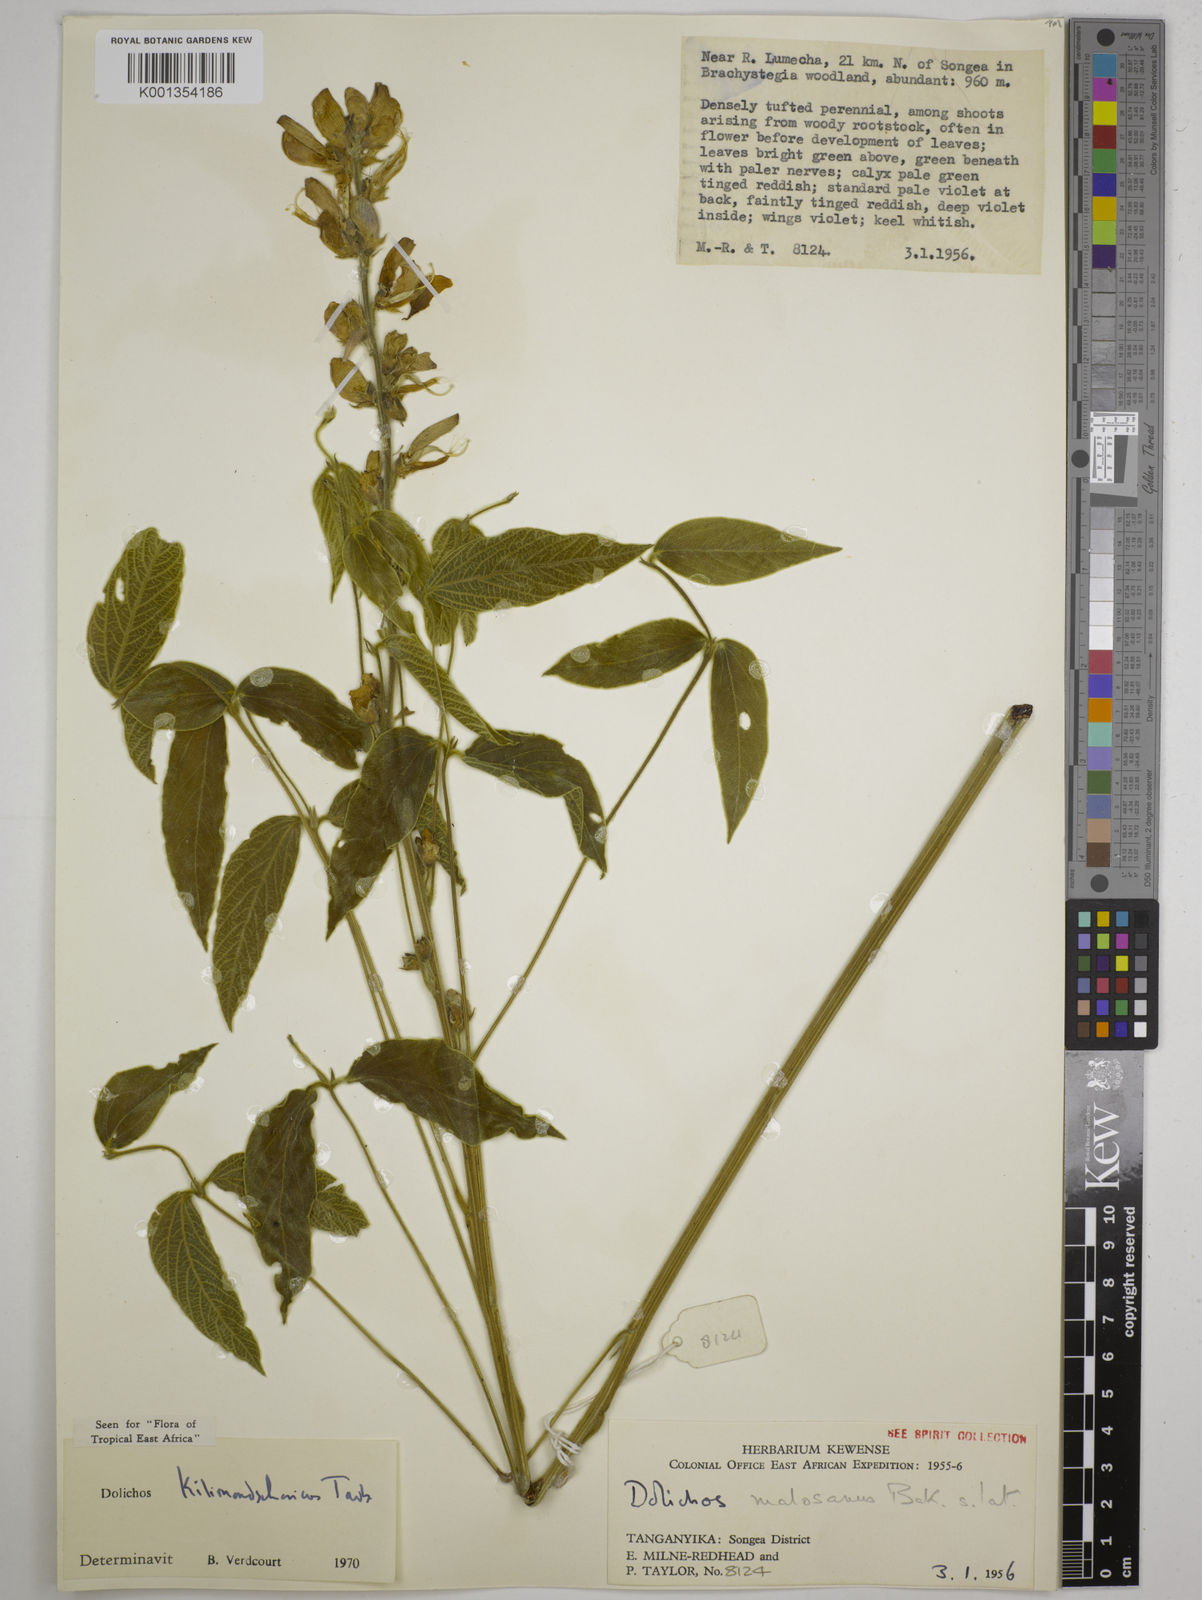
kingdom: Plantae
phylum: Tracheophyta
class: Magnoliopsida
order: Fabales
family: Fabaceae
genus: Dolichos
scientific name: Dolichos kilimandscharicus
